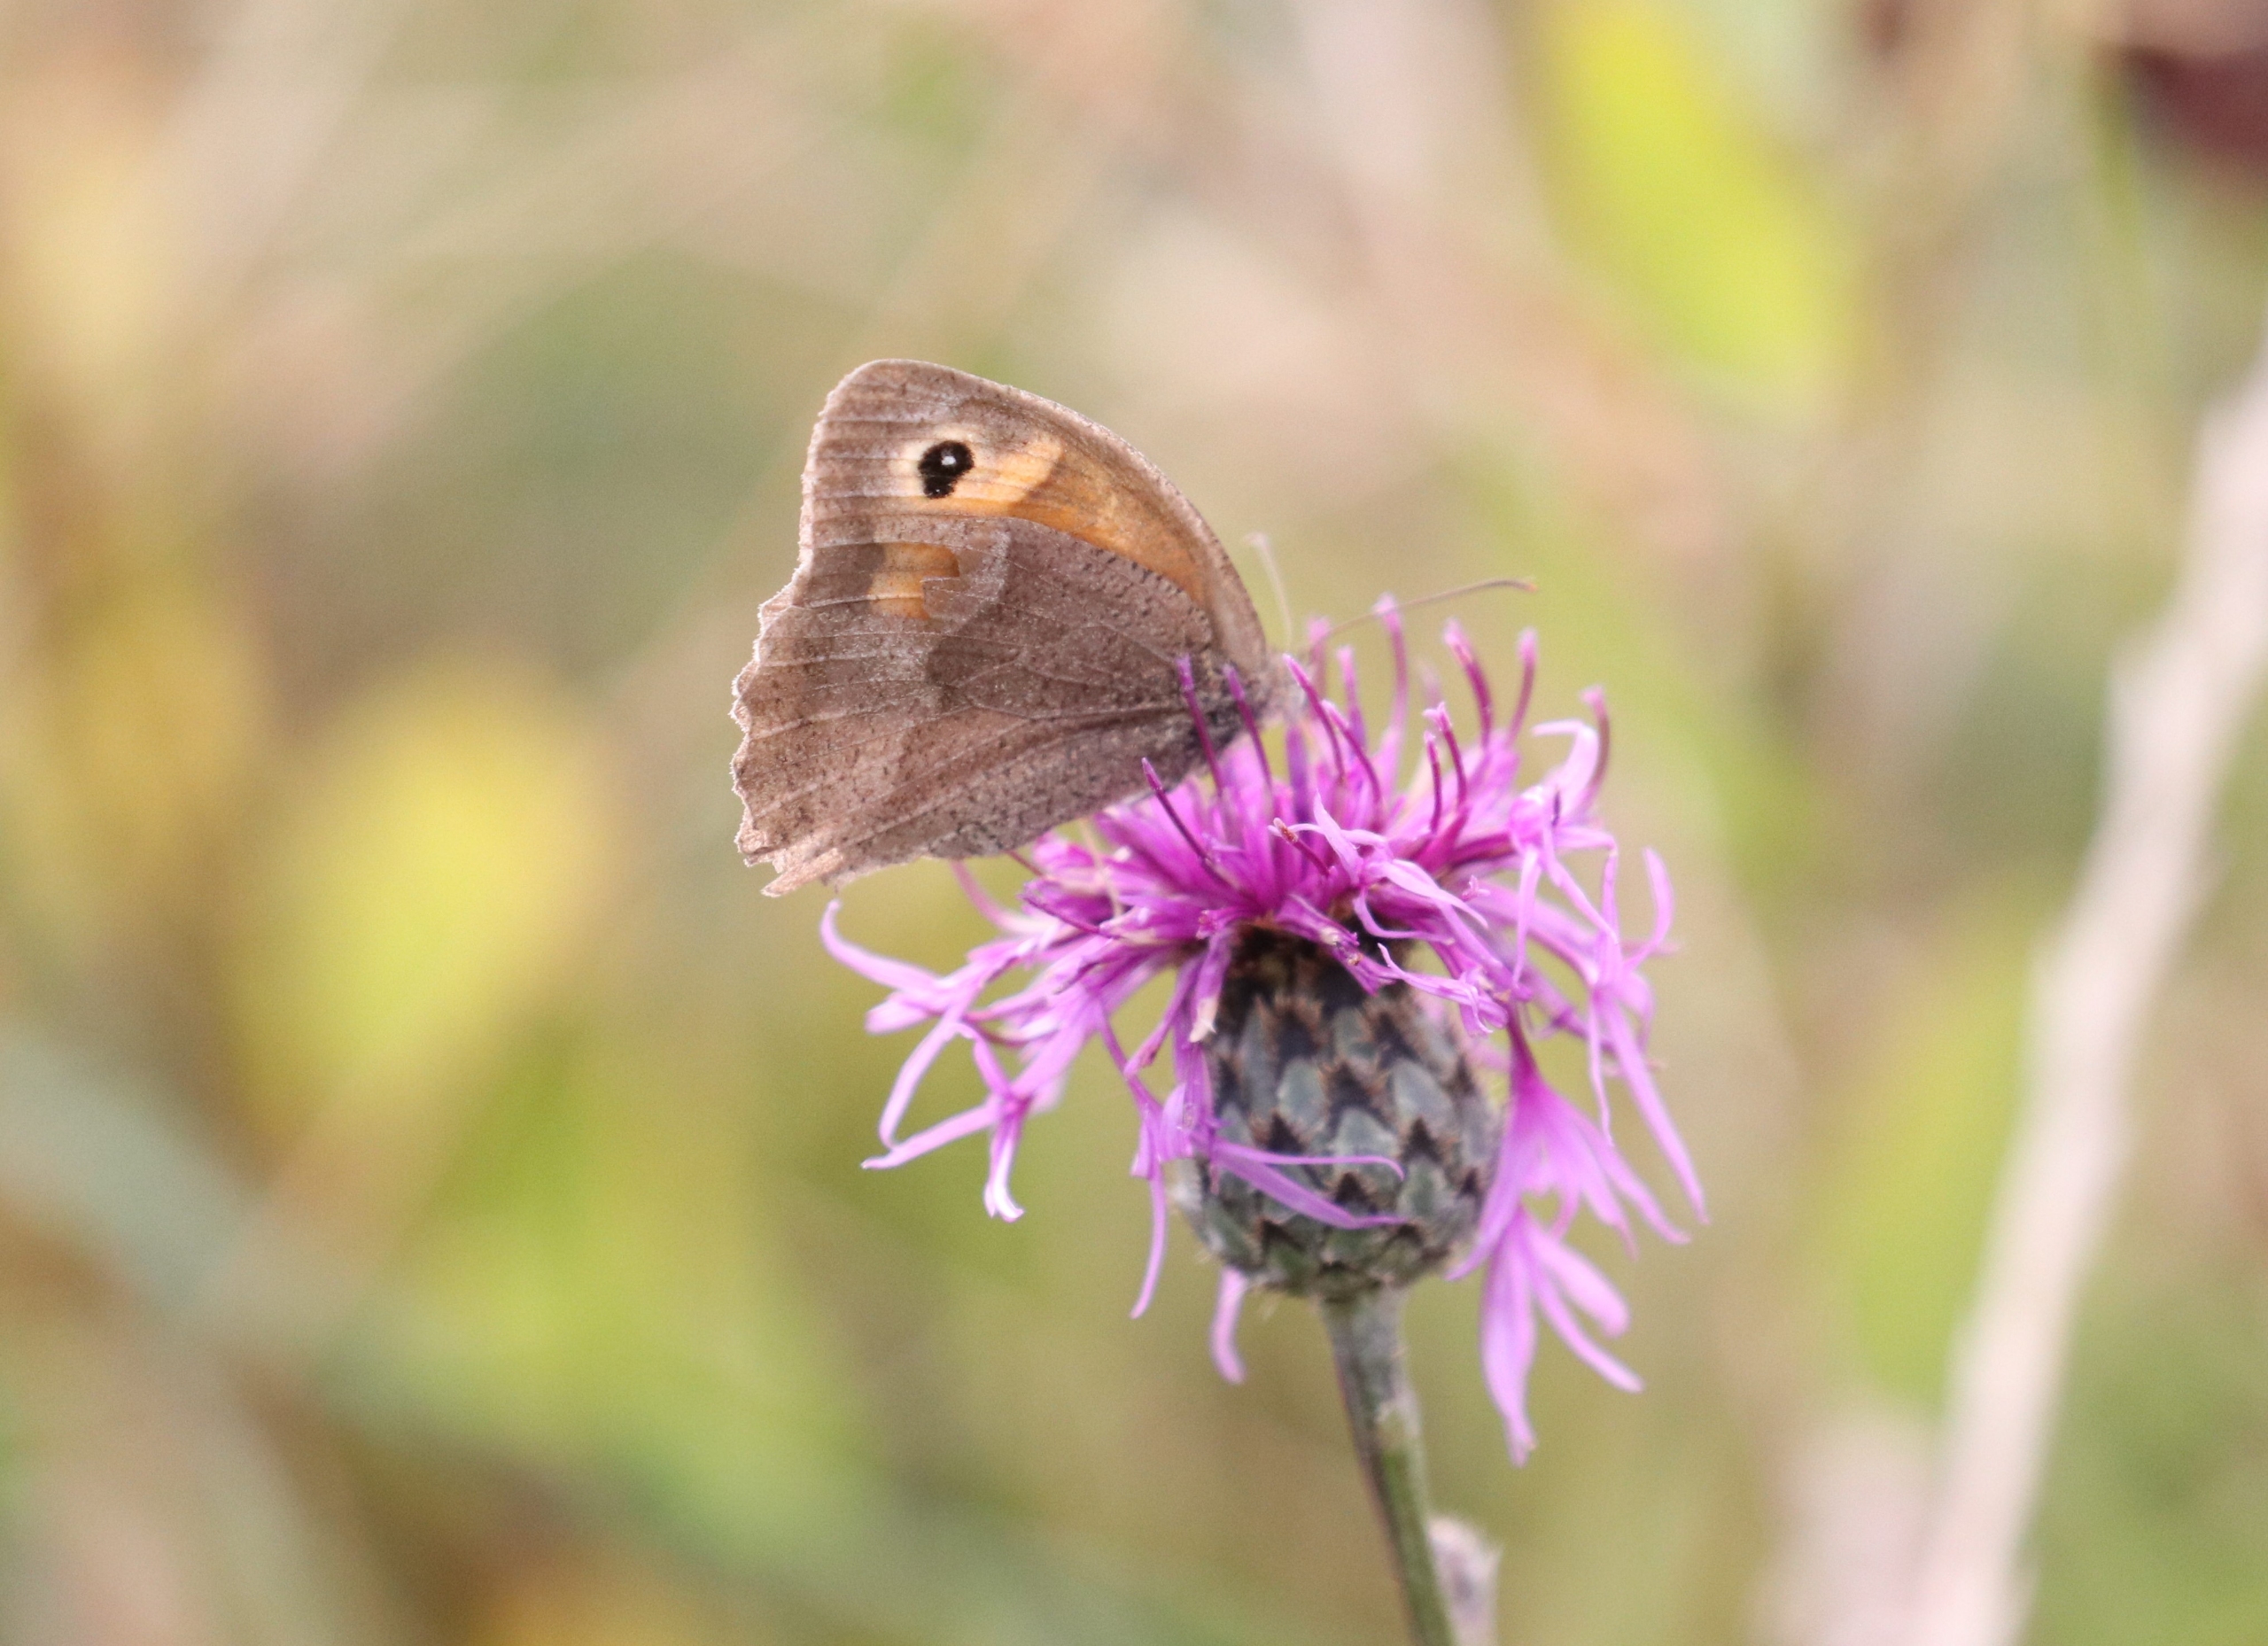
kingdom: Animalia
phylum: Arthropoda
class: Insecta
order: Lepidoptera
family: Nymphalidae
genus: Maniola
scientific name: Maniola jurtina
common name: Græsrandøje
